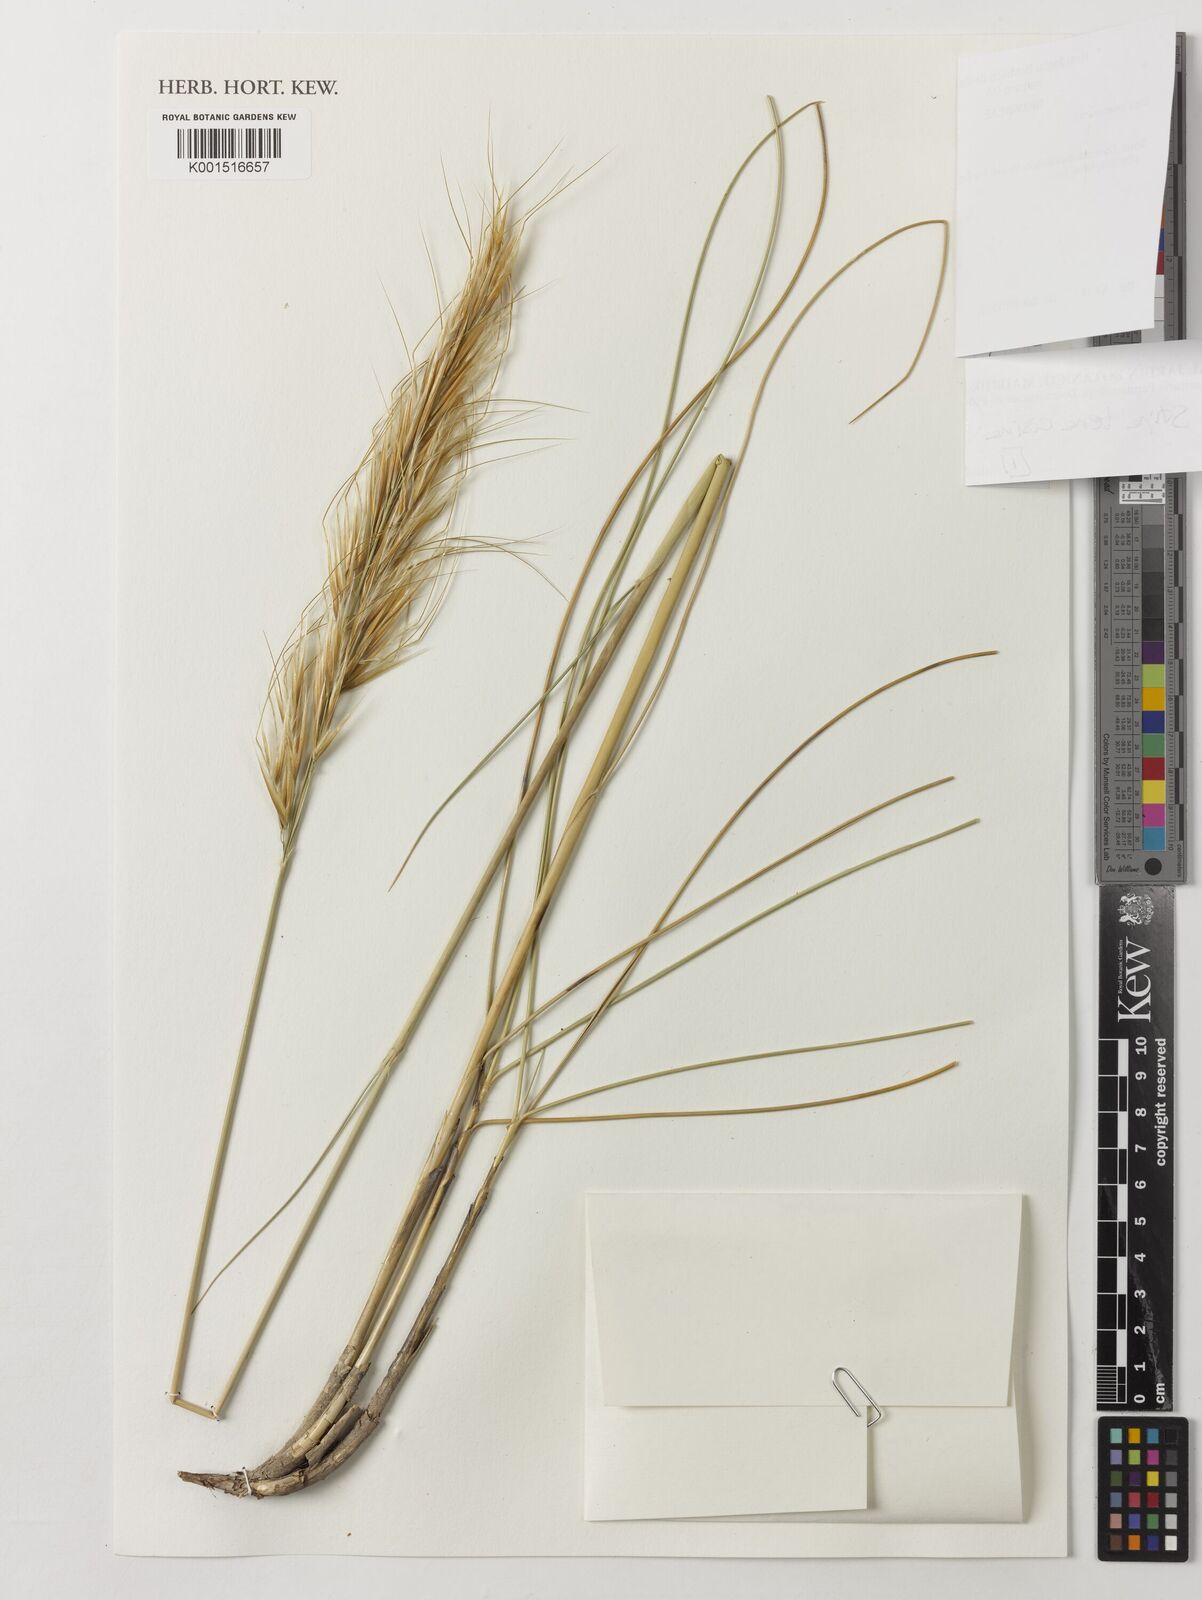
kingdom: Plantae
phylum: Tracheophyta
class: Liliopsida
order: Poales
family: Poaceae
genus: Macrochloa
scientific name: Macrochloa tenacissima
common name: Alfa grass
